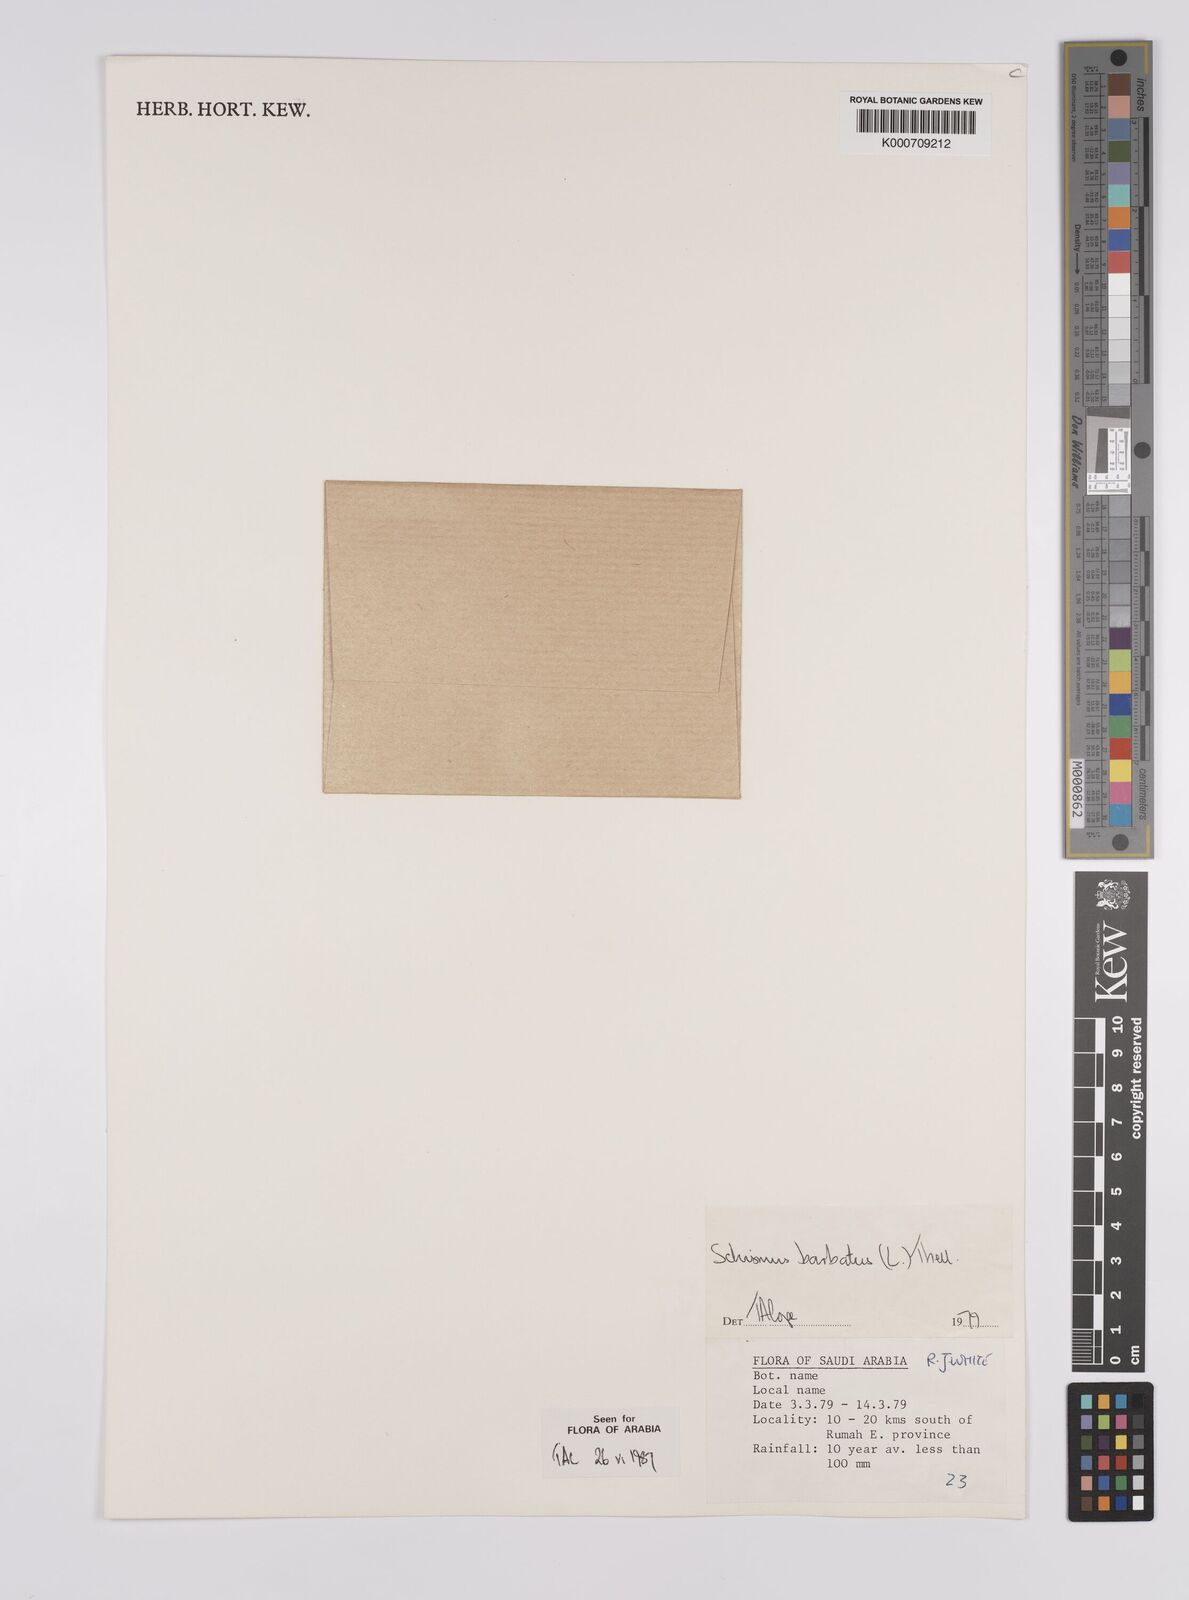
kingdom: Plantae
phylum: Tracheophyta
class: Liliopsida
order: Poales
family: Poaceae
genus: Schismus
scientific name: Schismus barbatus
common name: Kelch-grass
